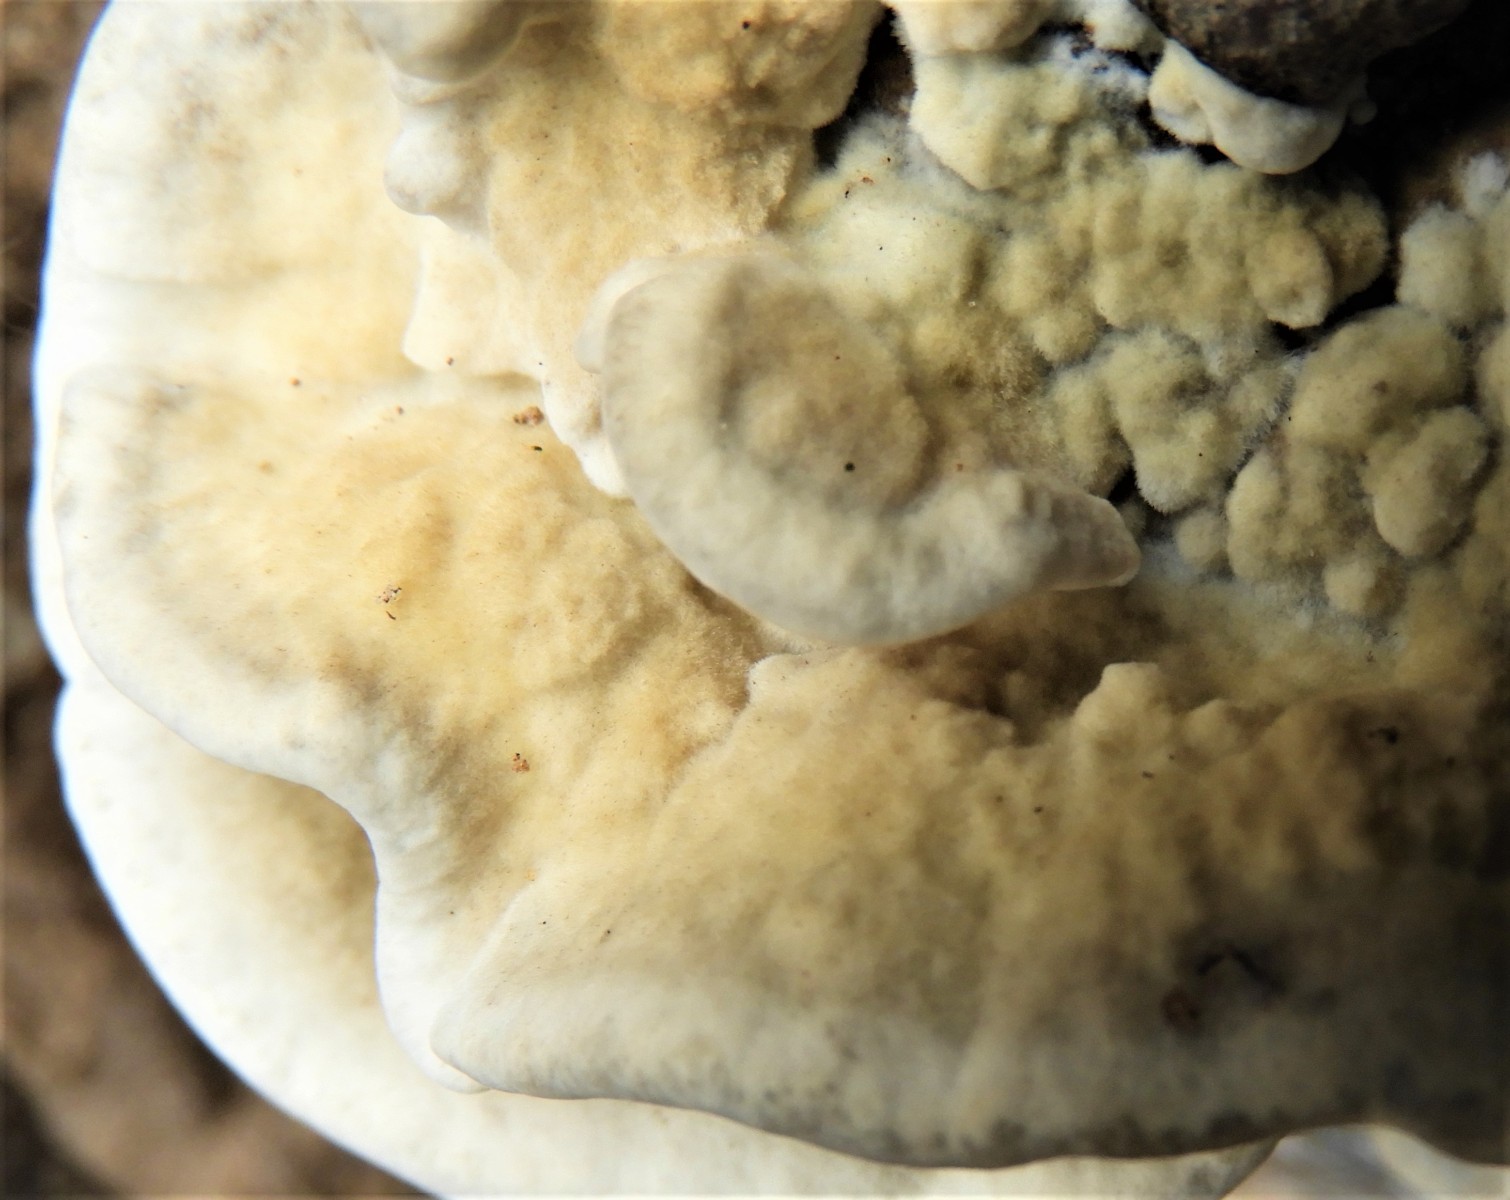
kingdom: Fungi
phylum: Basidiomycota
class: Agaricomycetes
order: Polyporales
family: Phanerochaetaceae
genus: Bjerkandera
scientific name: Bjerkandera adusta
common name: sveden sodporesvamp
